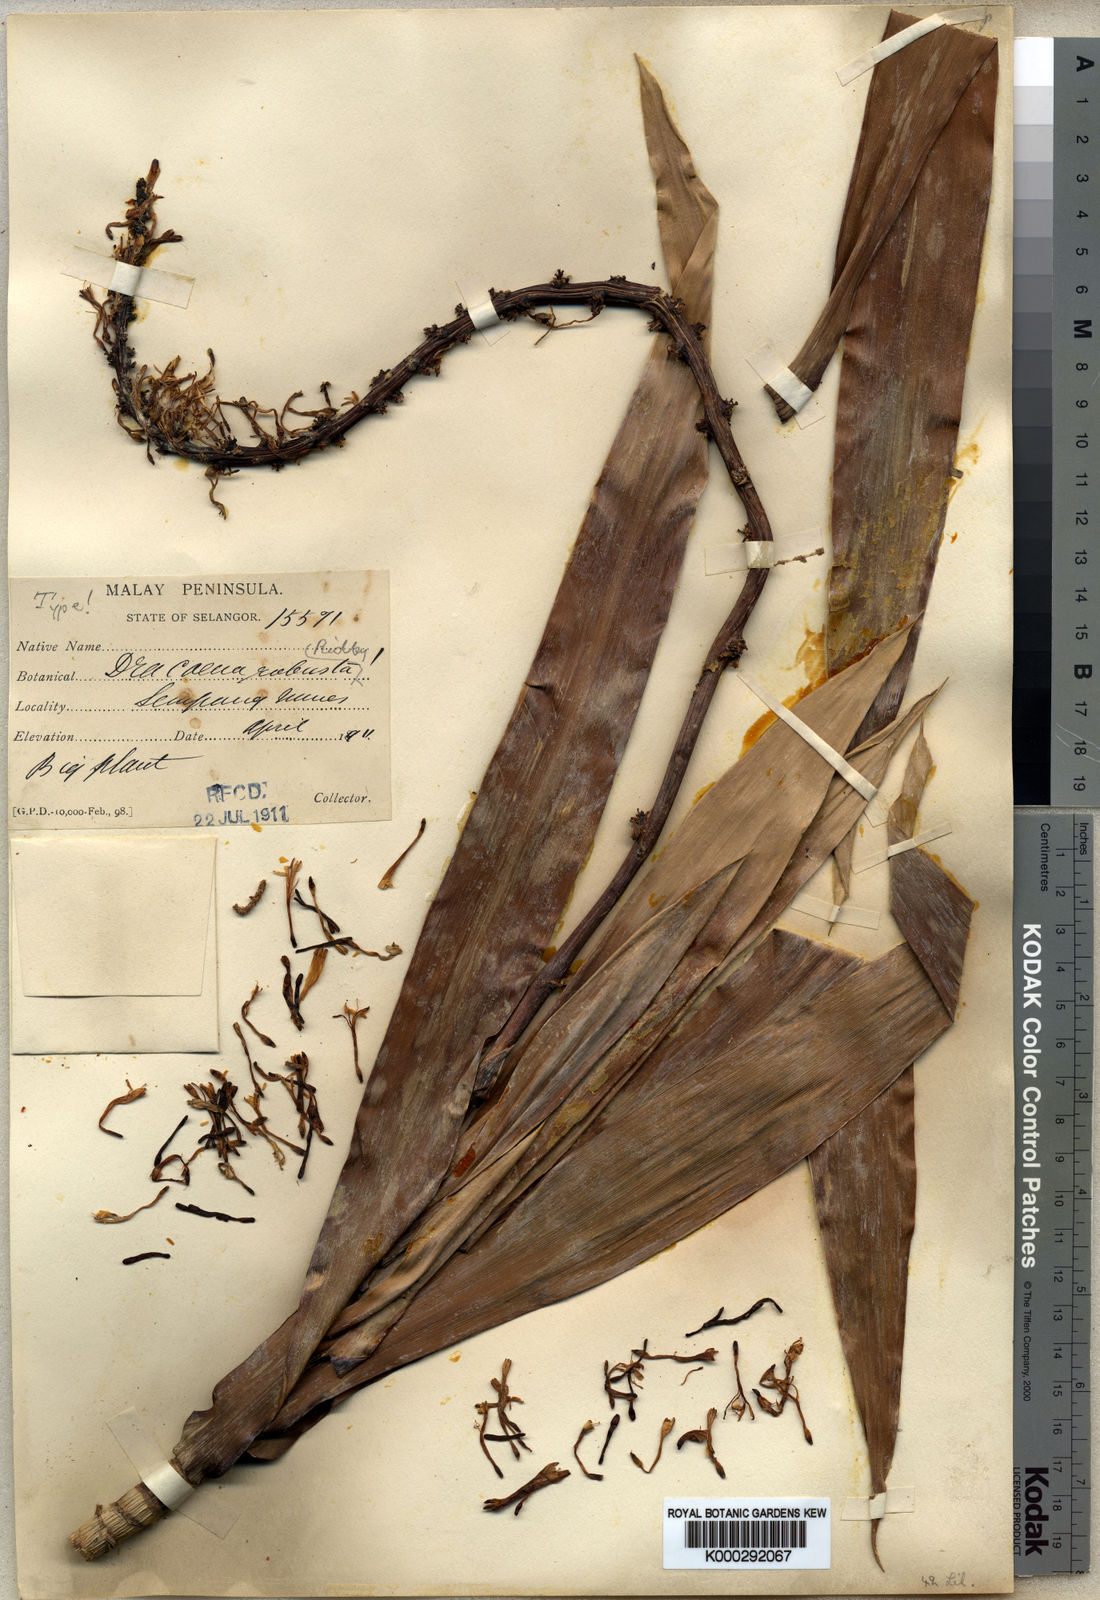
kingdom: Plantae
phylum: Tracheophyta
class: Liliopsida
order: Asparagales
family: Asparagaceae
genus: Dracaena
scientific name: Dracaena neorobusta
